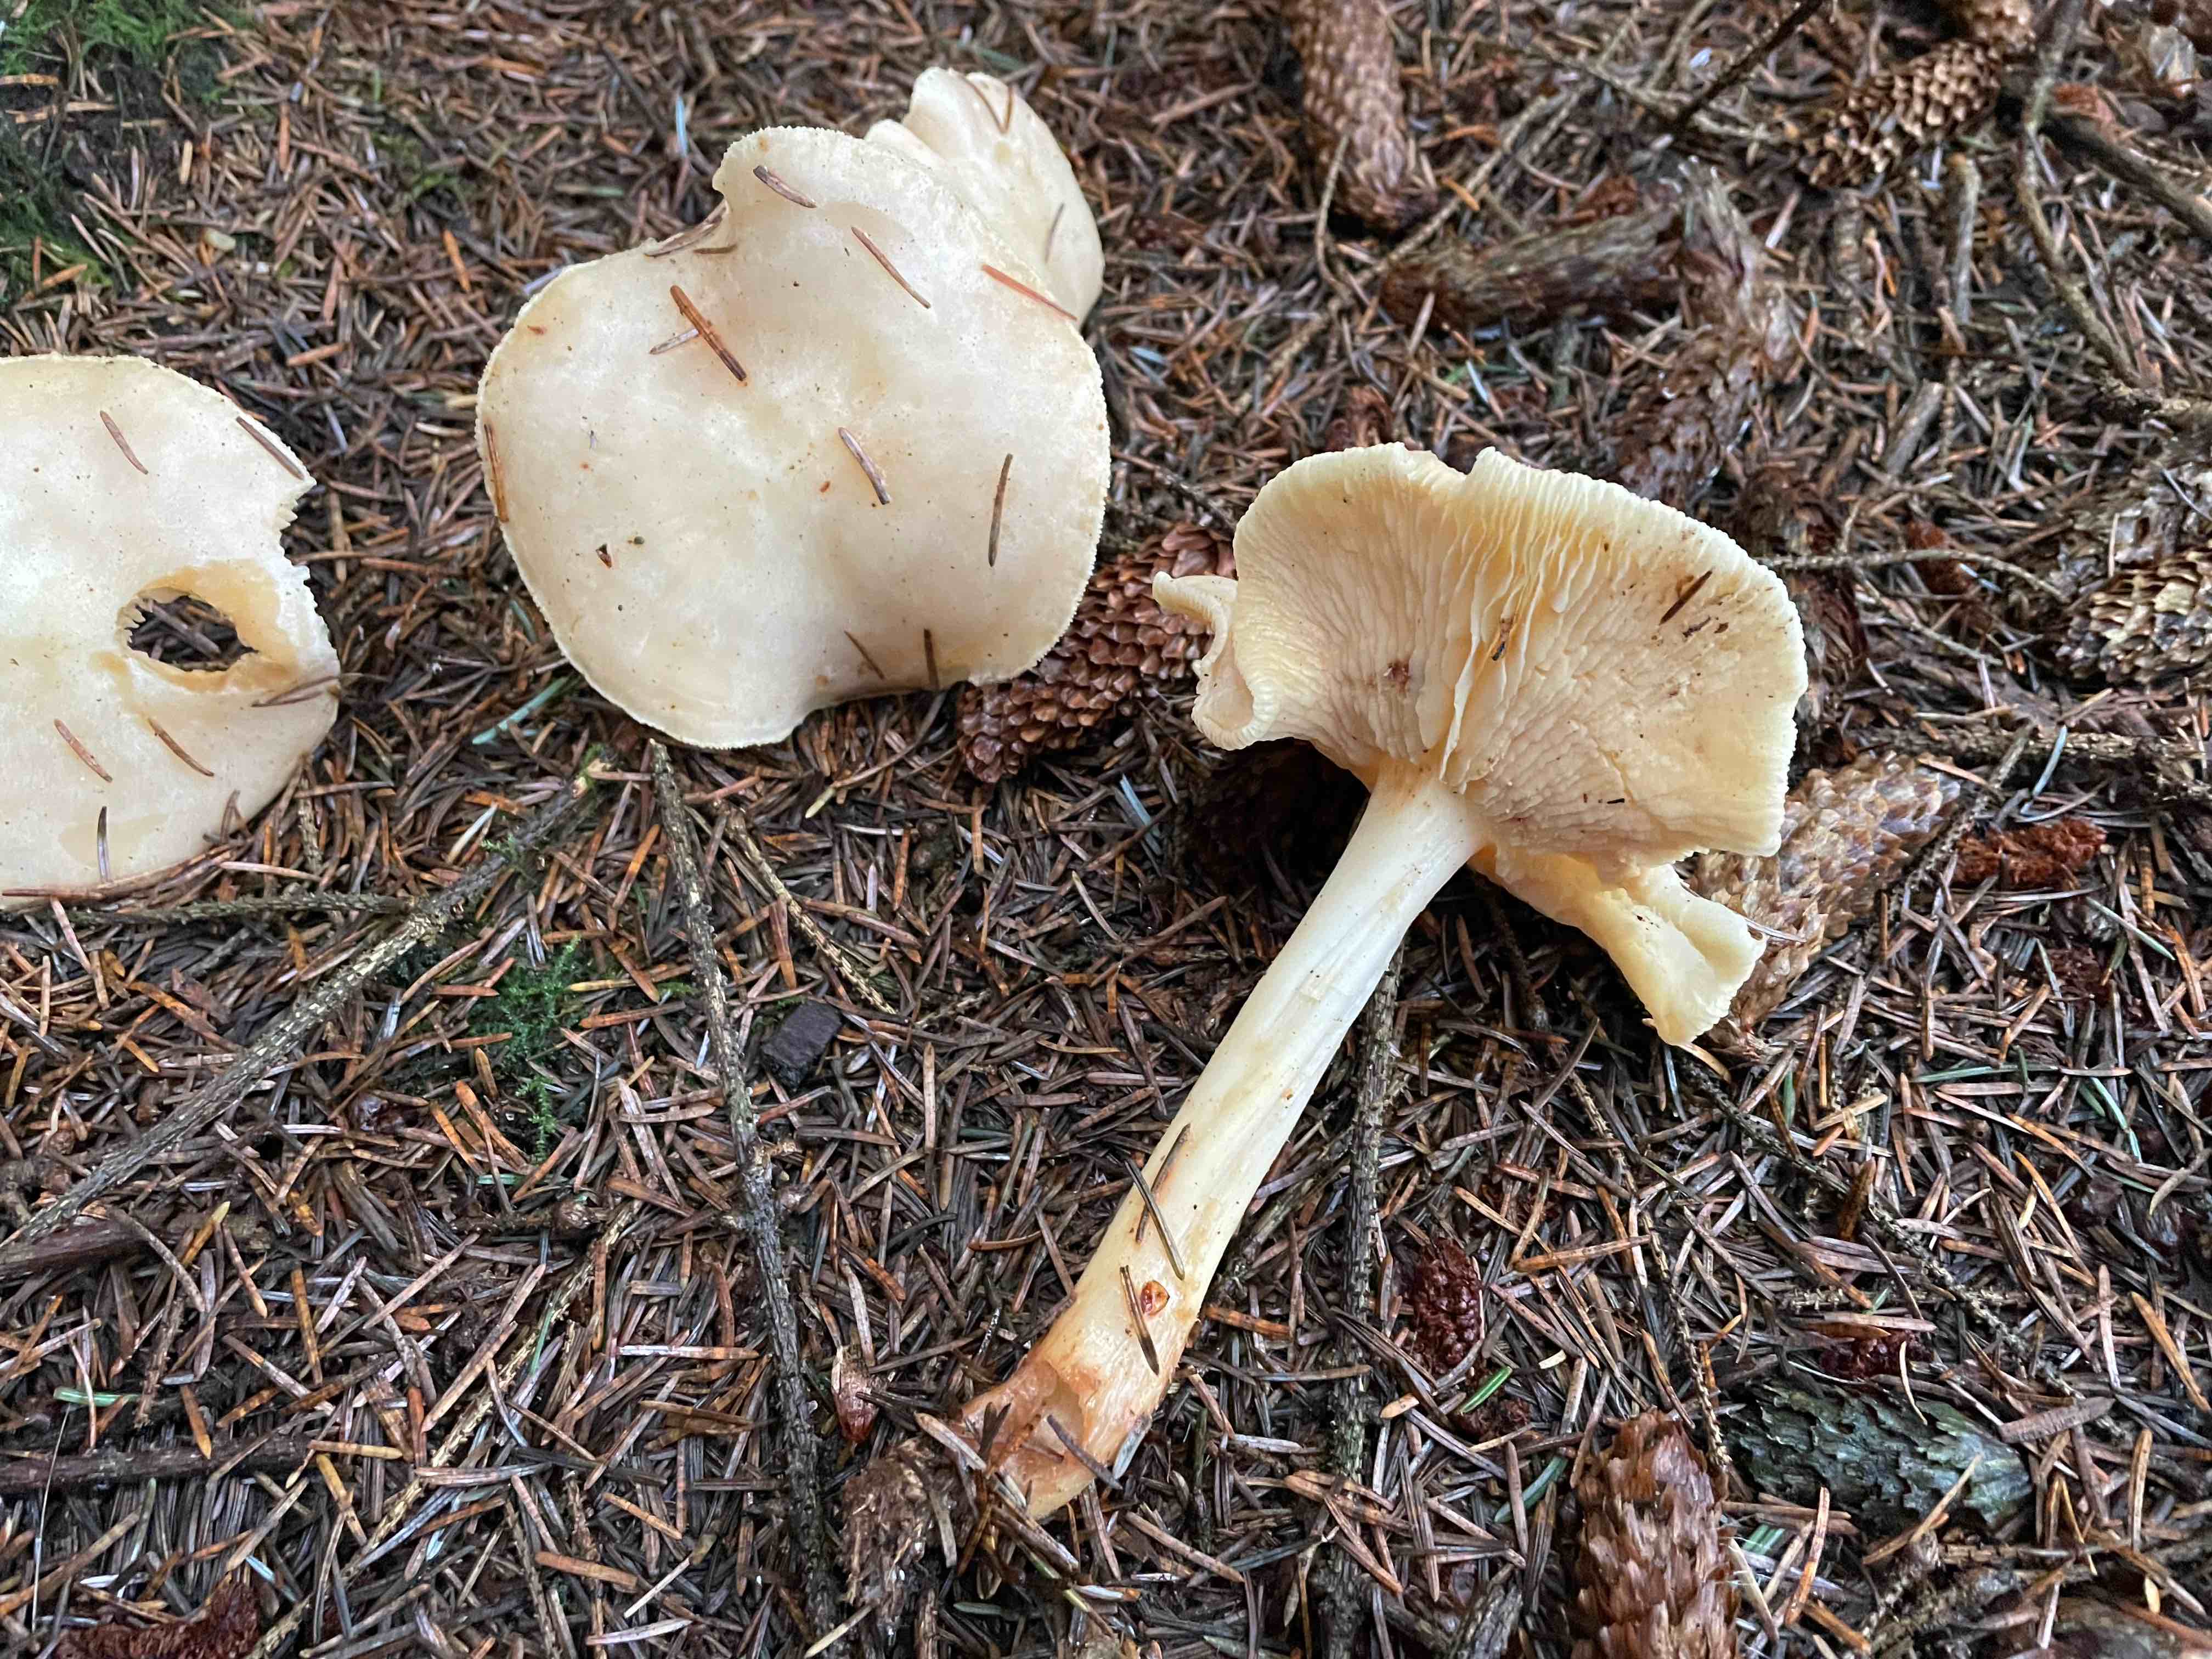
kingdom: Fungi
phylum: Basidiomycota
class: Agaricomycetes
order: Agaricales
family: Omphalotaceae
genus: Rhodocollybia
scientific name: Rhodocollybia maculata
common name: plettet fladhat
